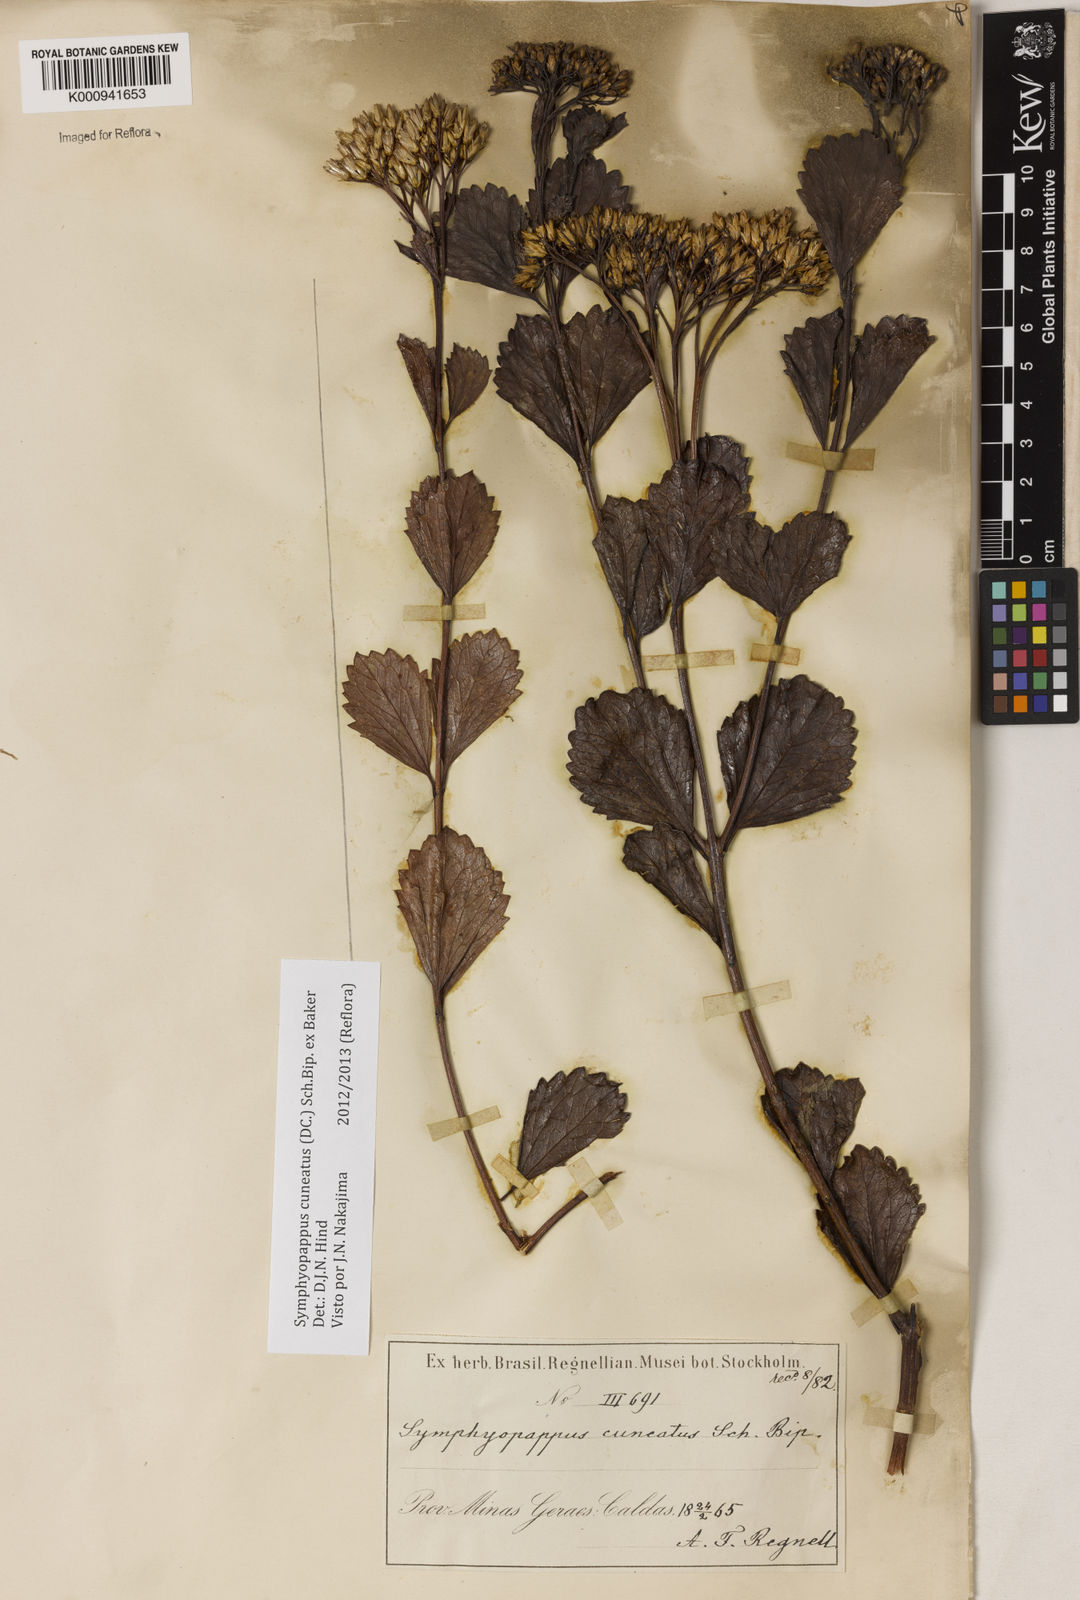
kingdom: Plantae
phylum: Tracheophyta
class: Magnoliopsida
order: Asterales
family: Asteraceae
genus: Symphyopappus
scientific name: Symphyopappus cuneatus
